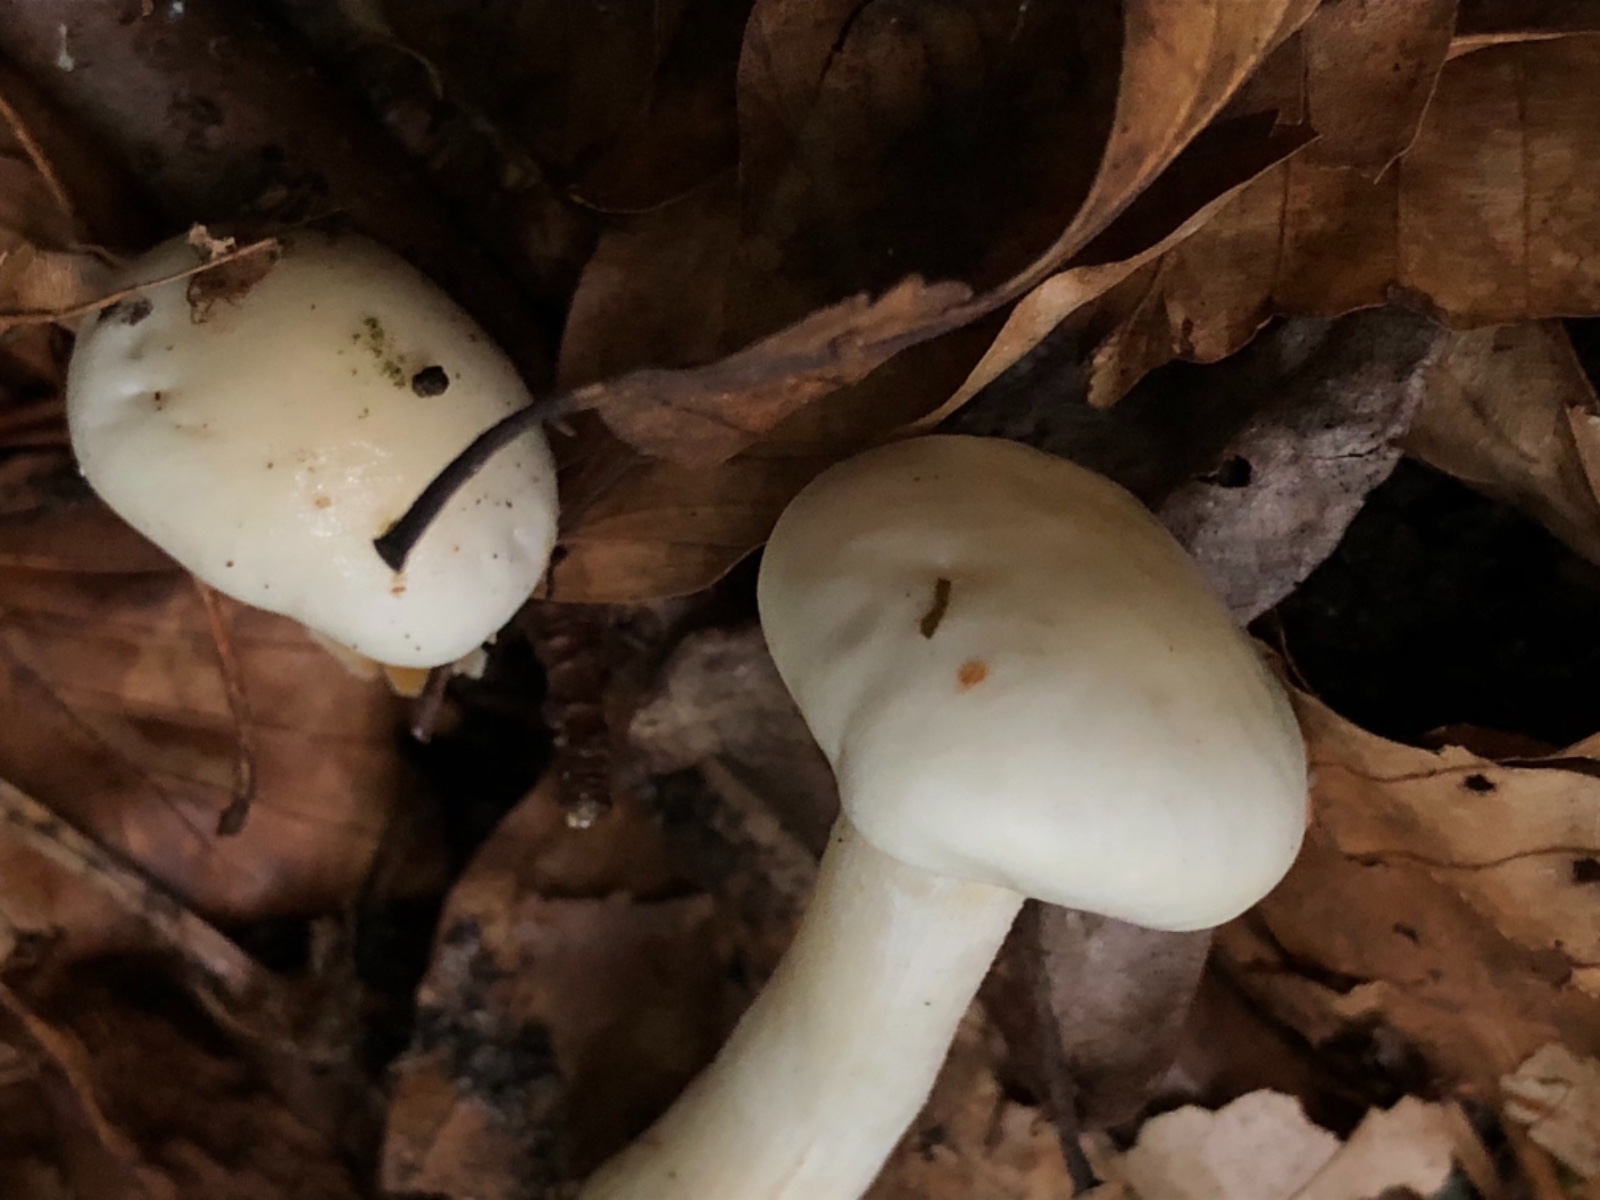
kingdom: Fungi
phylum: Basidiomycota
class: Agaricomycetes
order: Agaricales
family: Hygrophoraceae
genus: Hygrophorus
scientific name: Hygrophorus
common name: sneglehat
